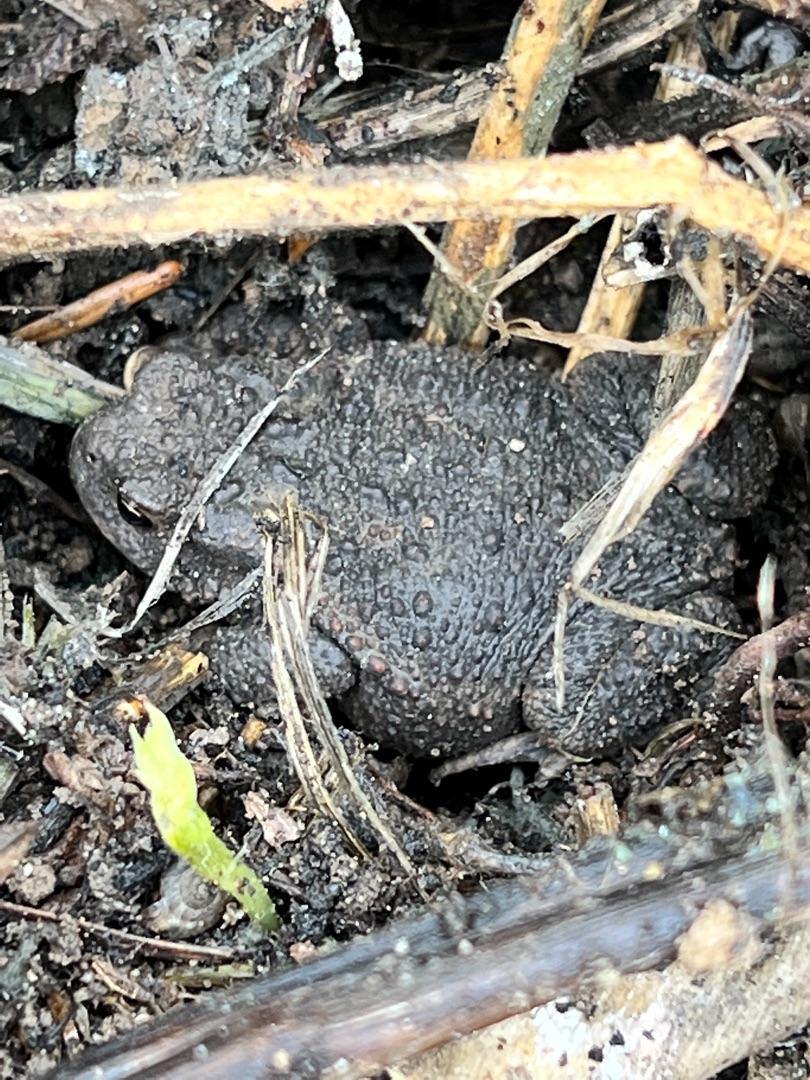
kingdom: Animalia
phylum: Chordata
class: Amphibia
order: Anura
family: Bufonidae
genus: Bufo
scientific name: Bufo bufo
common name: Skrubtudse
